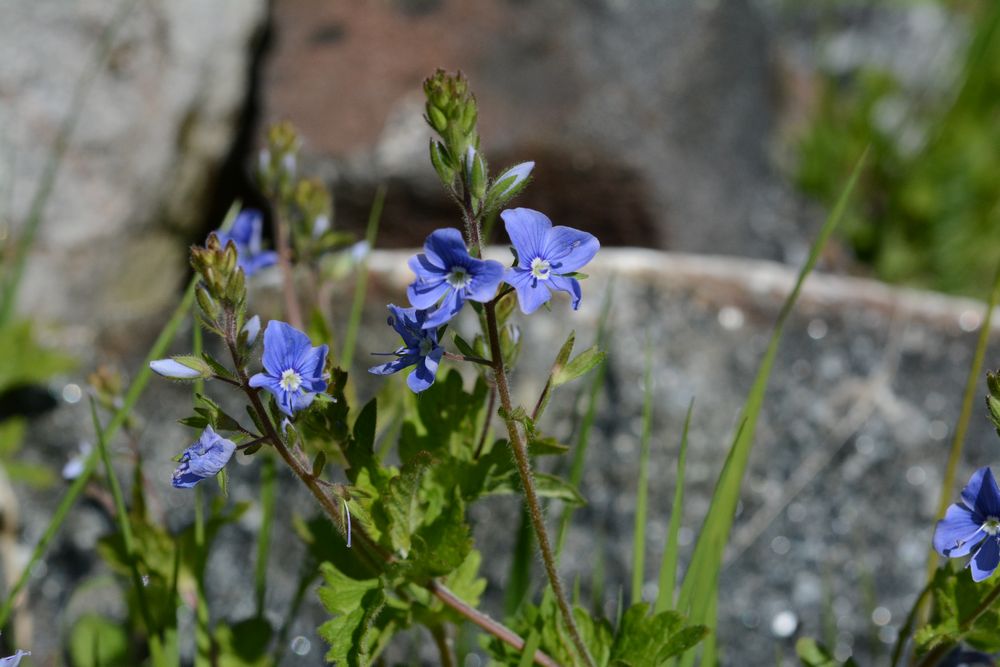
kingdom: Plantae
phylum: Tracheophyta
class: Magnoliopsida
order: Lamiales
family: Plantaginaceae
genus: Veronica
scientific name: Veronica chamaedrys
